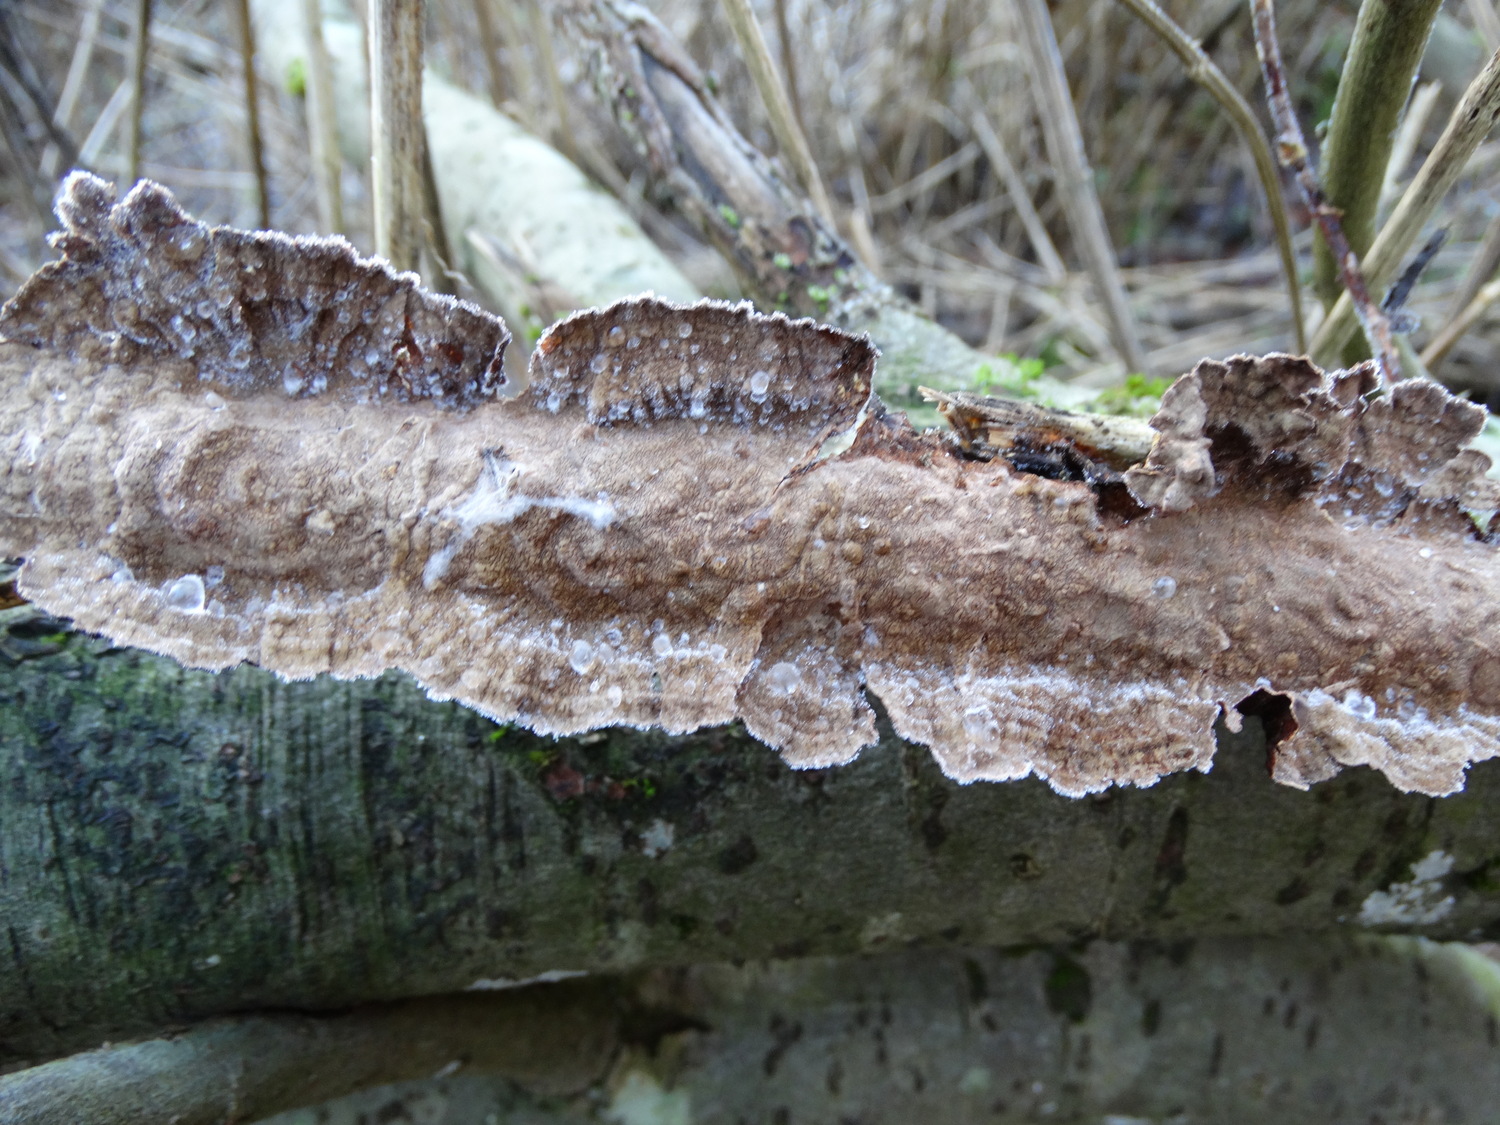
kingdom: Fungi
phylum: Basidiomycota
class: Agaricomycetes
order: Hymenochaetales
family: Hymenochaetaceae
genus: Hydnoporia
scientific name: Hydnoporia tabacina
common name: tobaksbrun ruslædersvamp
